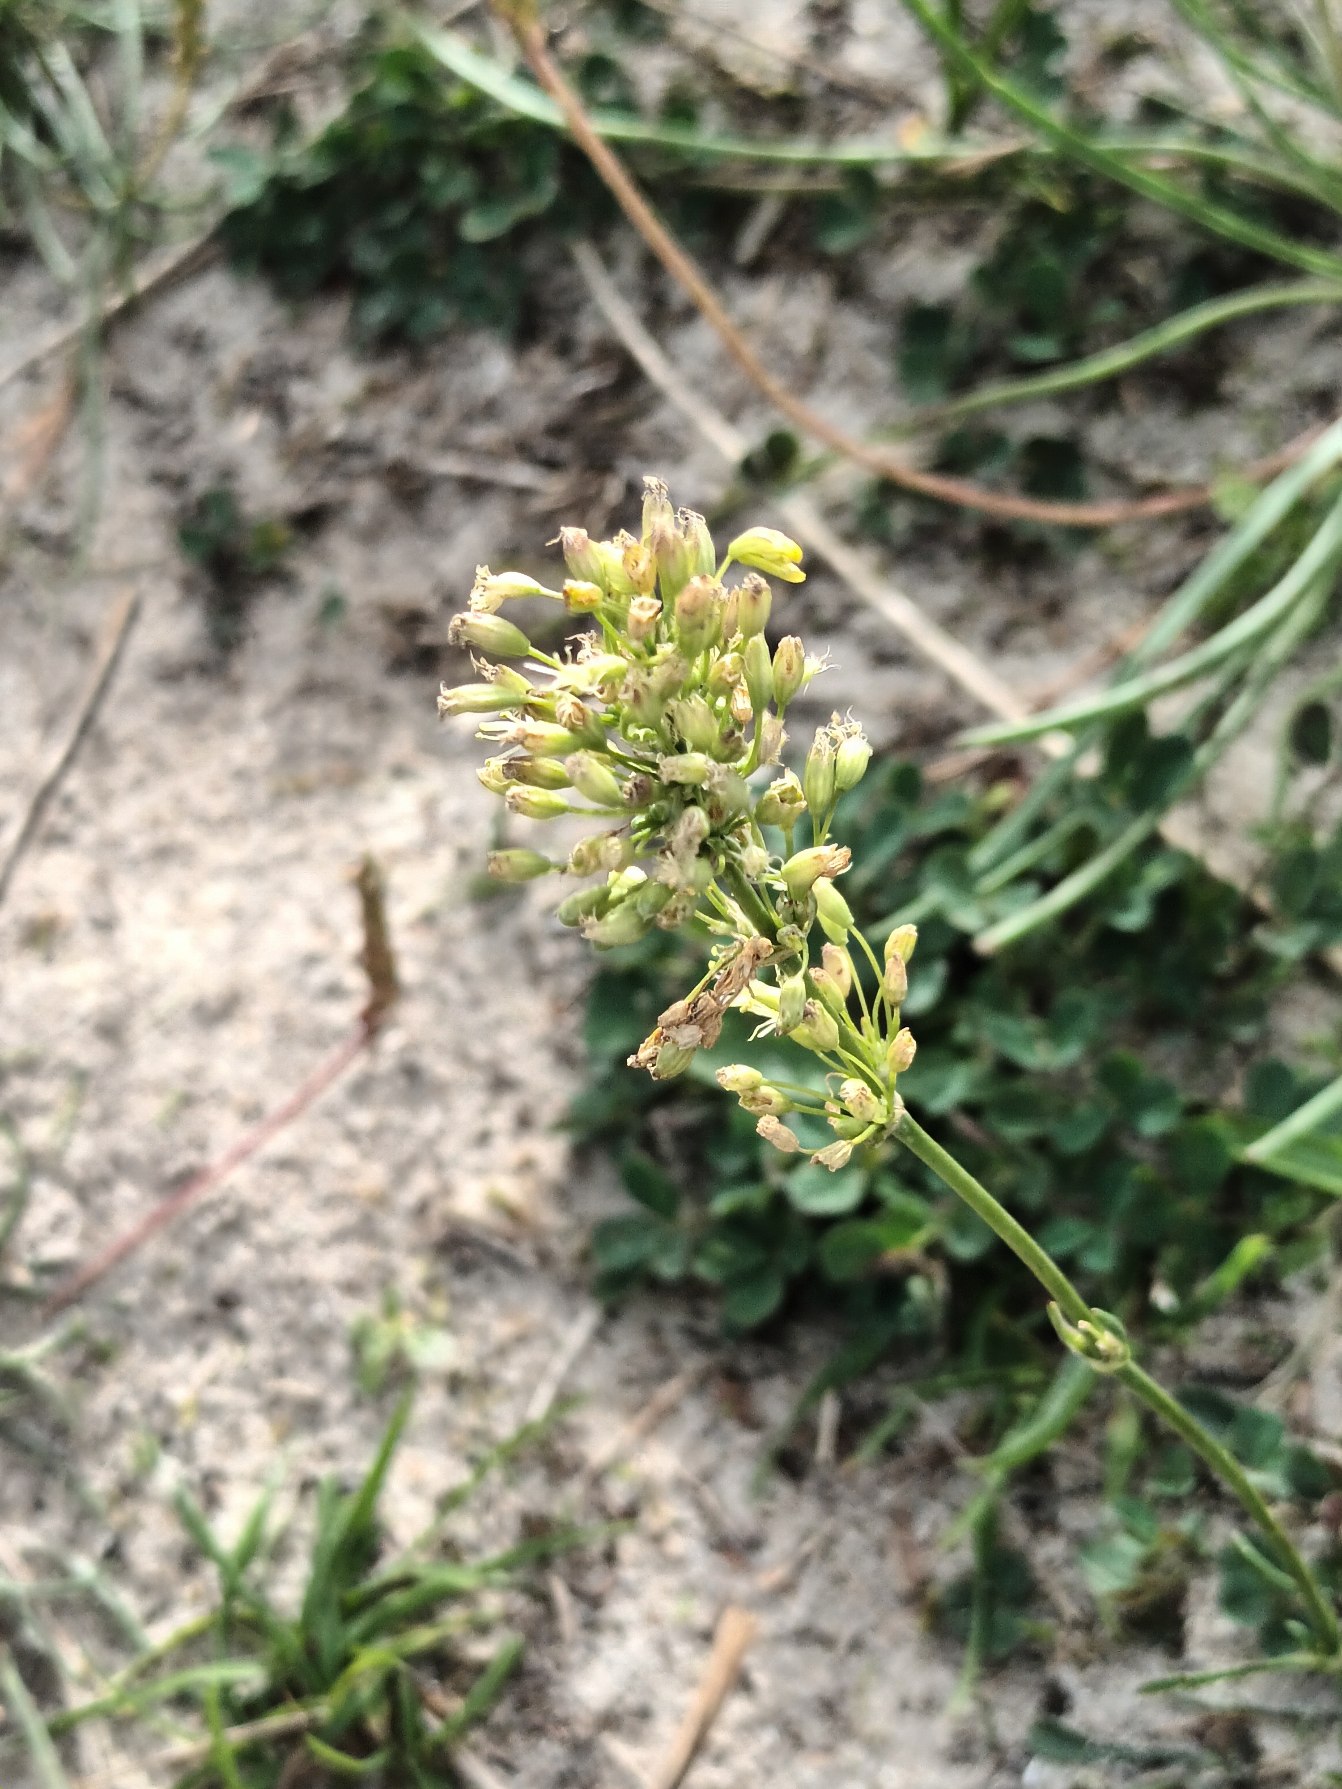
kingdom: Plantae
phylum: Tracheophyta
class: Magnoliopsida
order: Caryophyllales
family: Caryophyllaceae
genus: Silene
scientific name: Silene otites
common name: Klit-limurt
